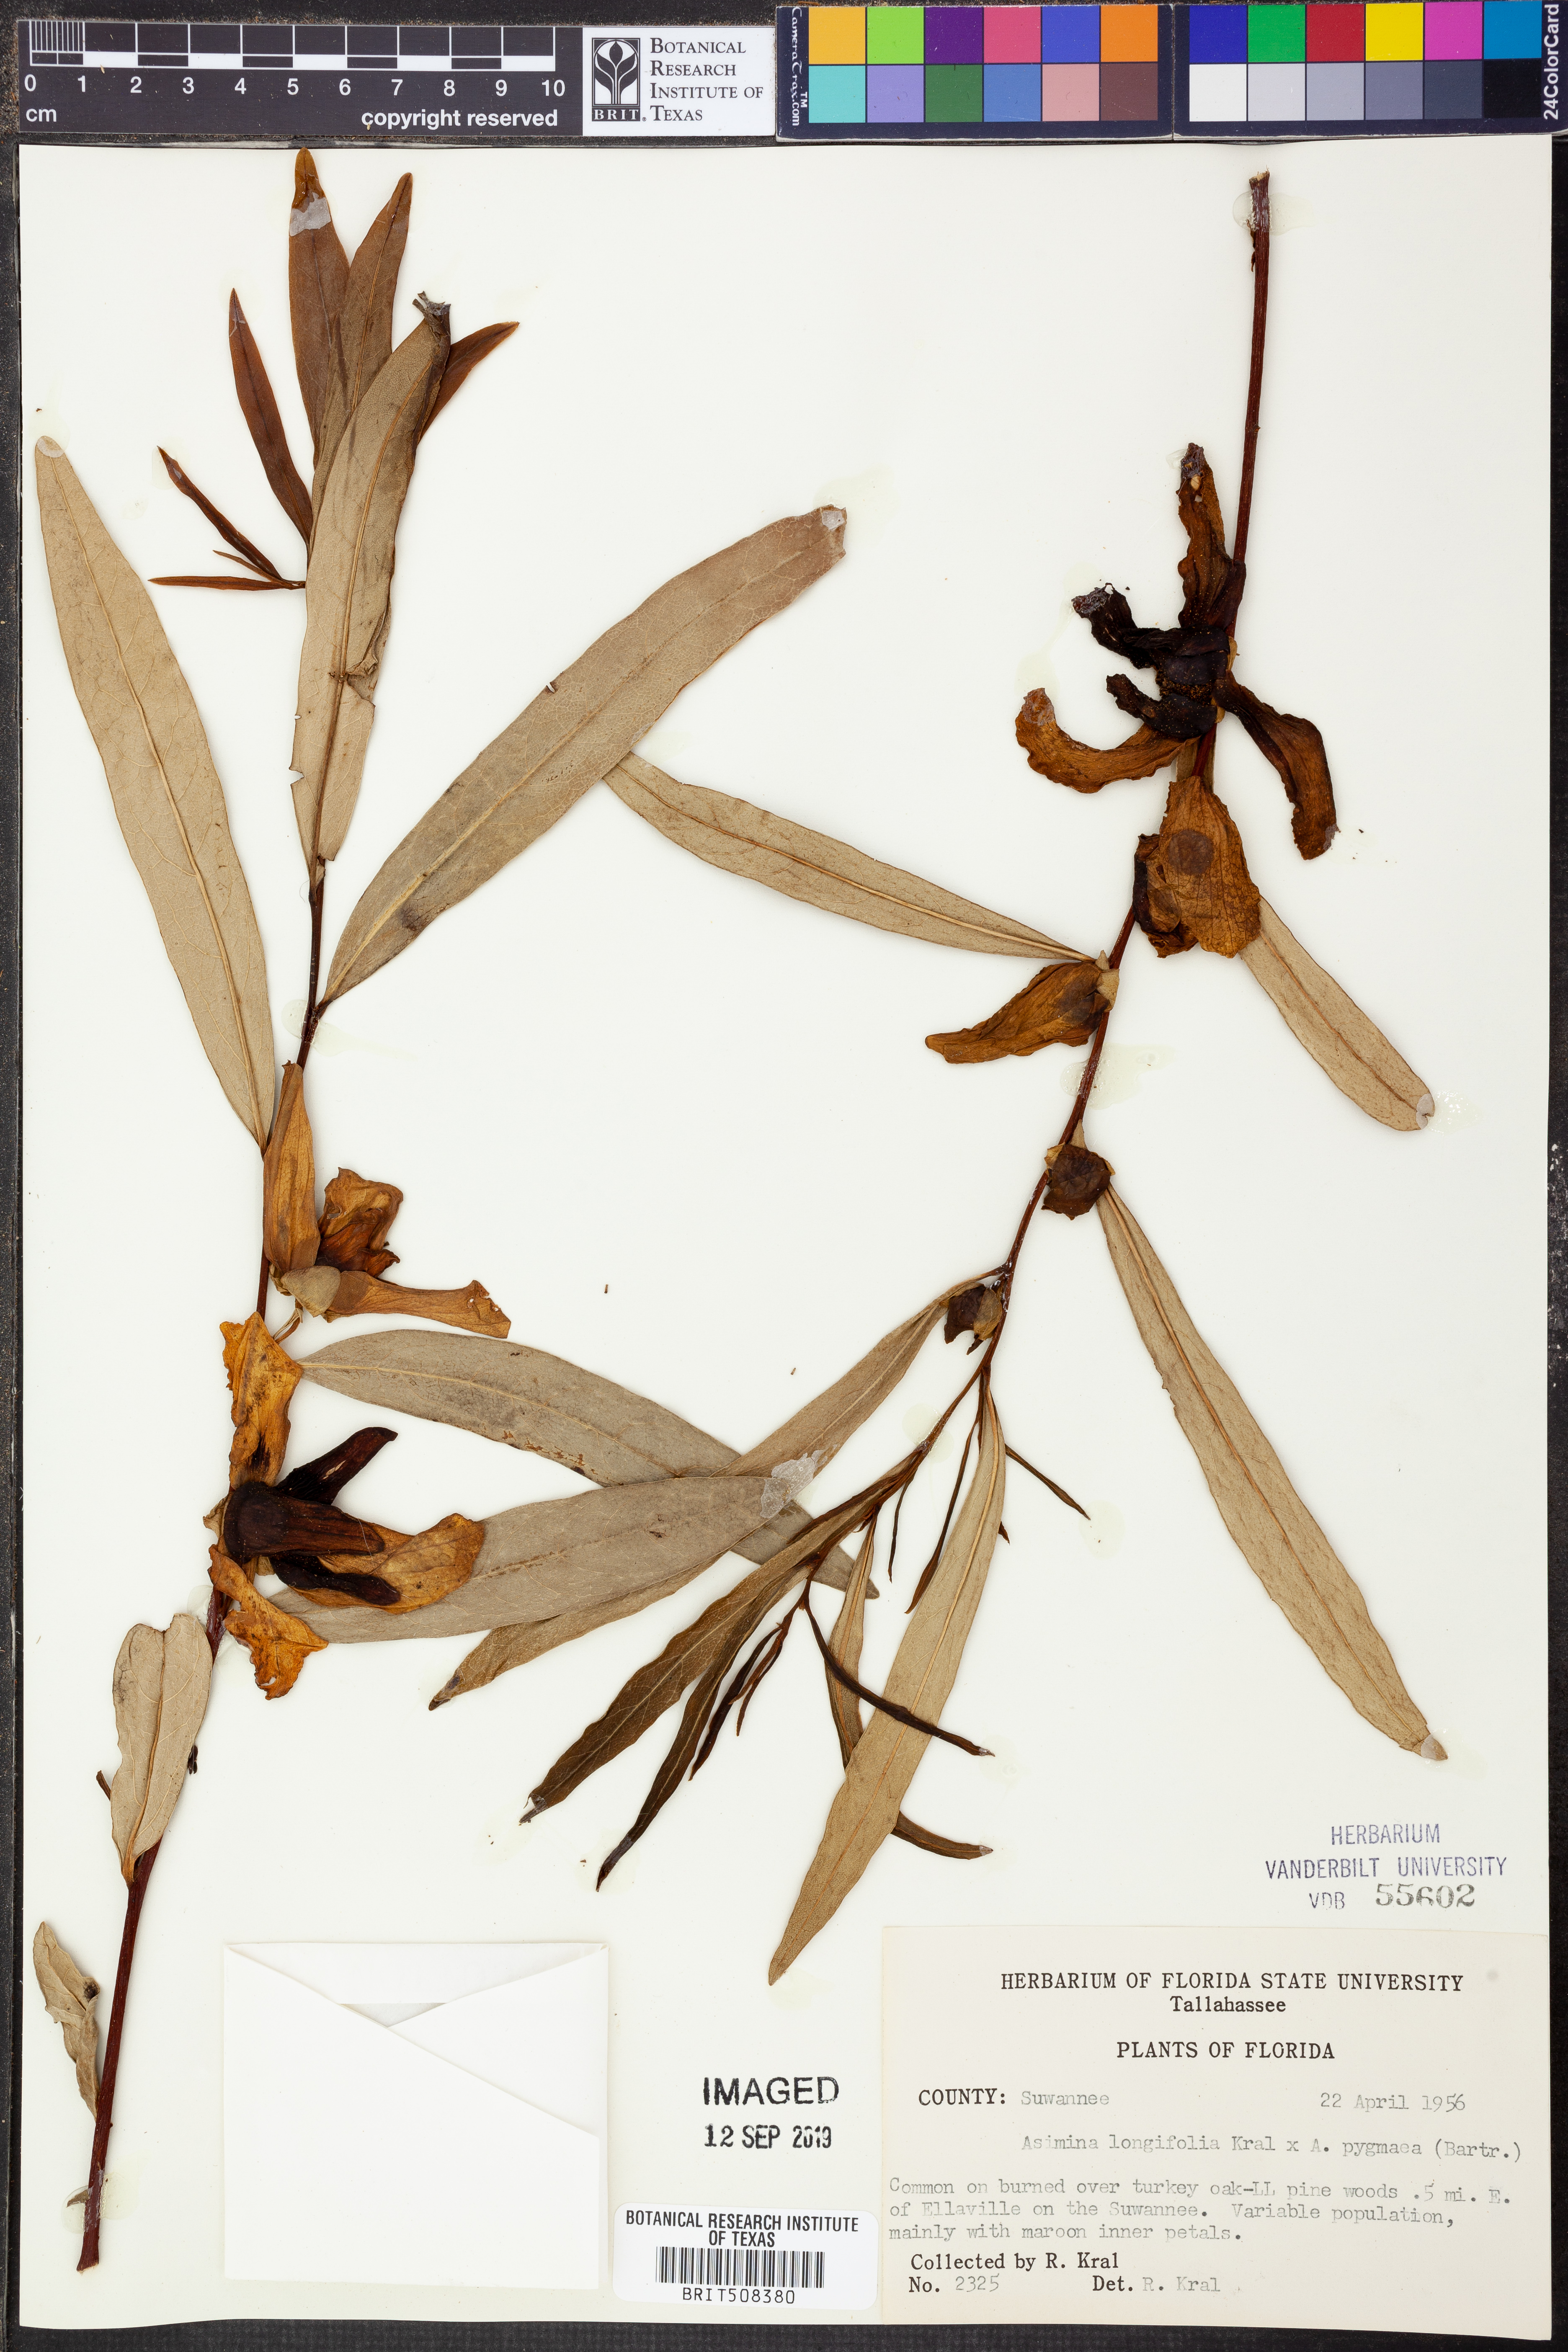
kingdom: Plantae
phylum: Tracheophyta
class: Magnoliopsida
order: Magnoliales
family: Annonaceae
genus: Asimina
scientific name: Asimina longifolia
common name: Polecatbush
